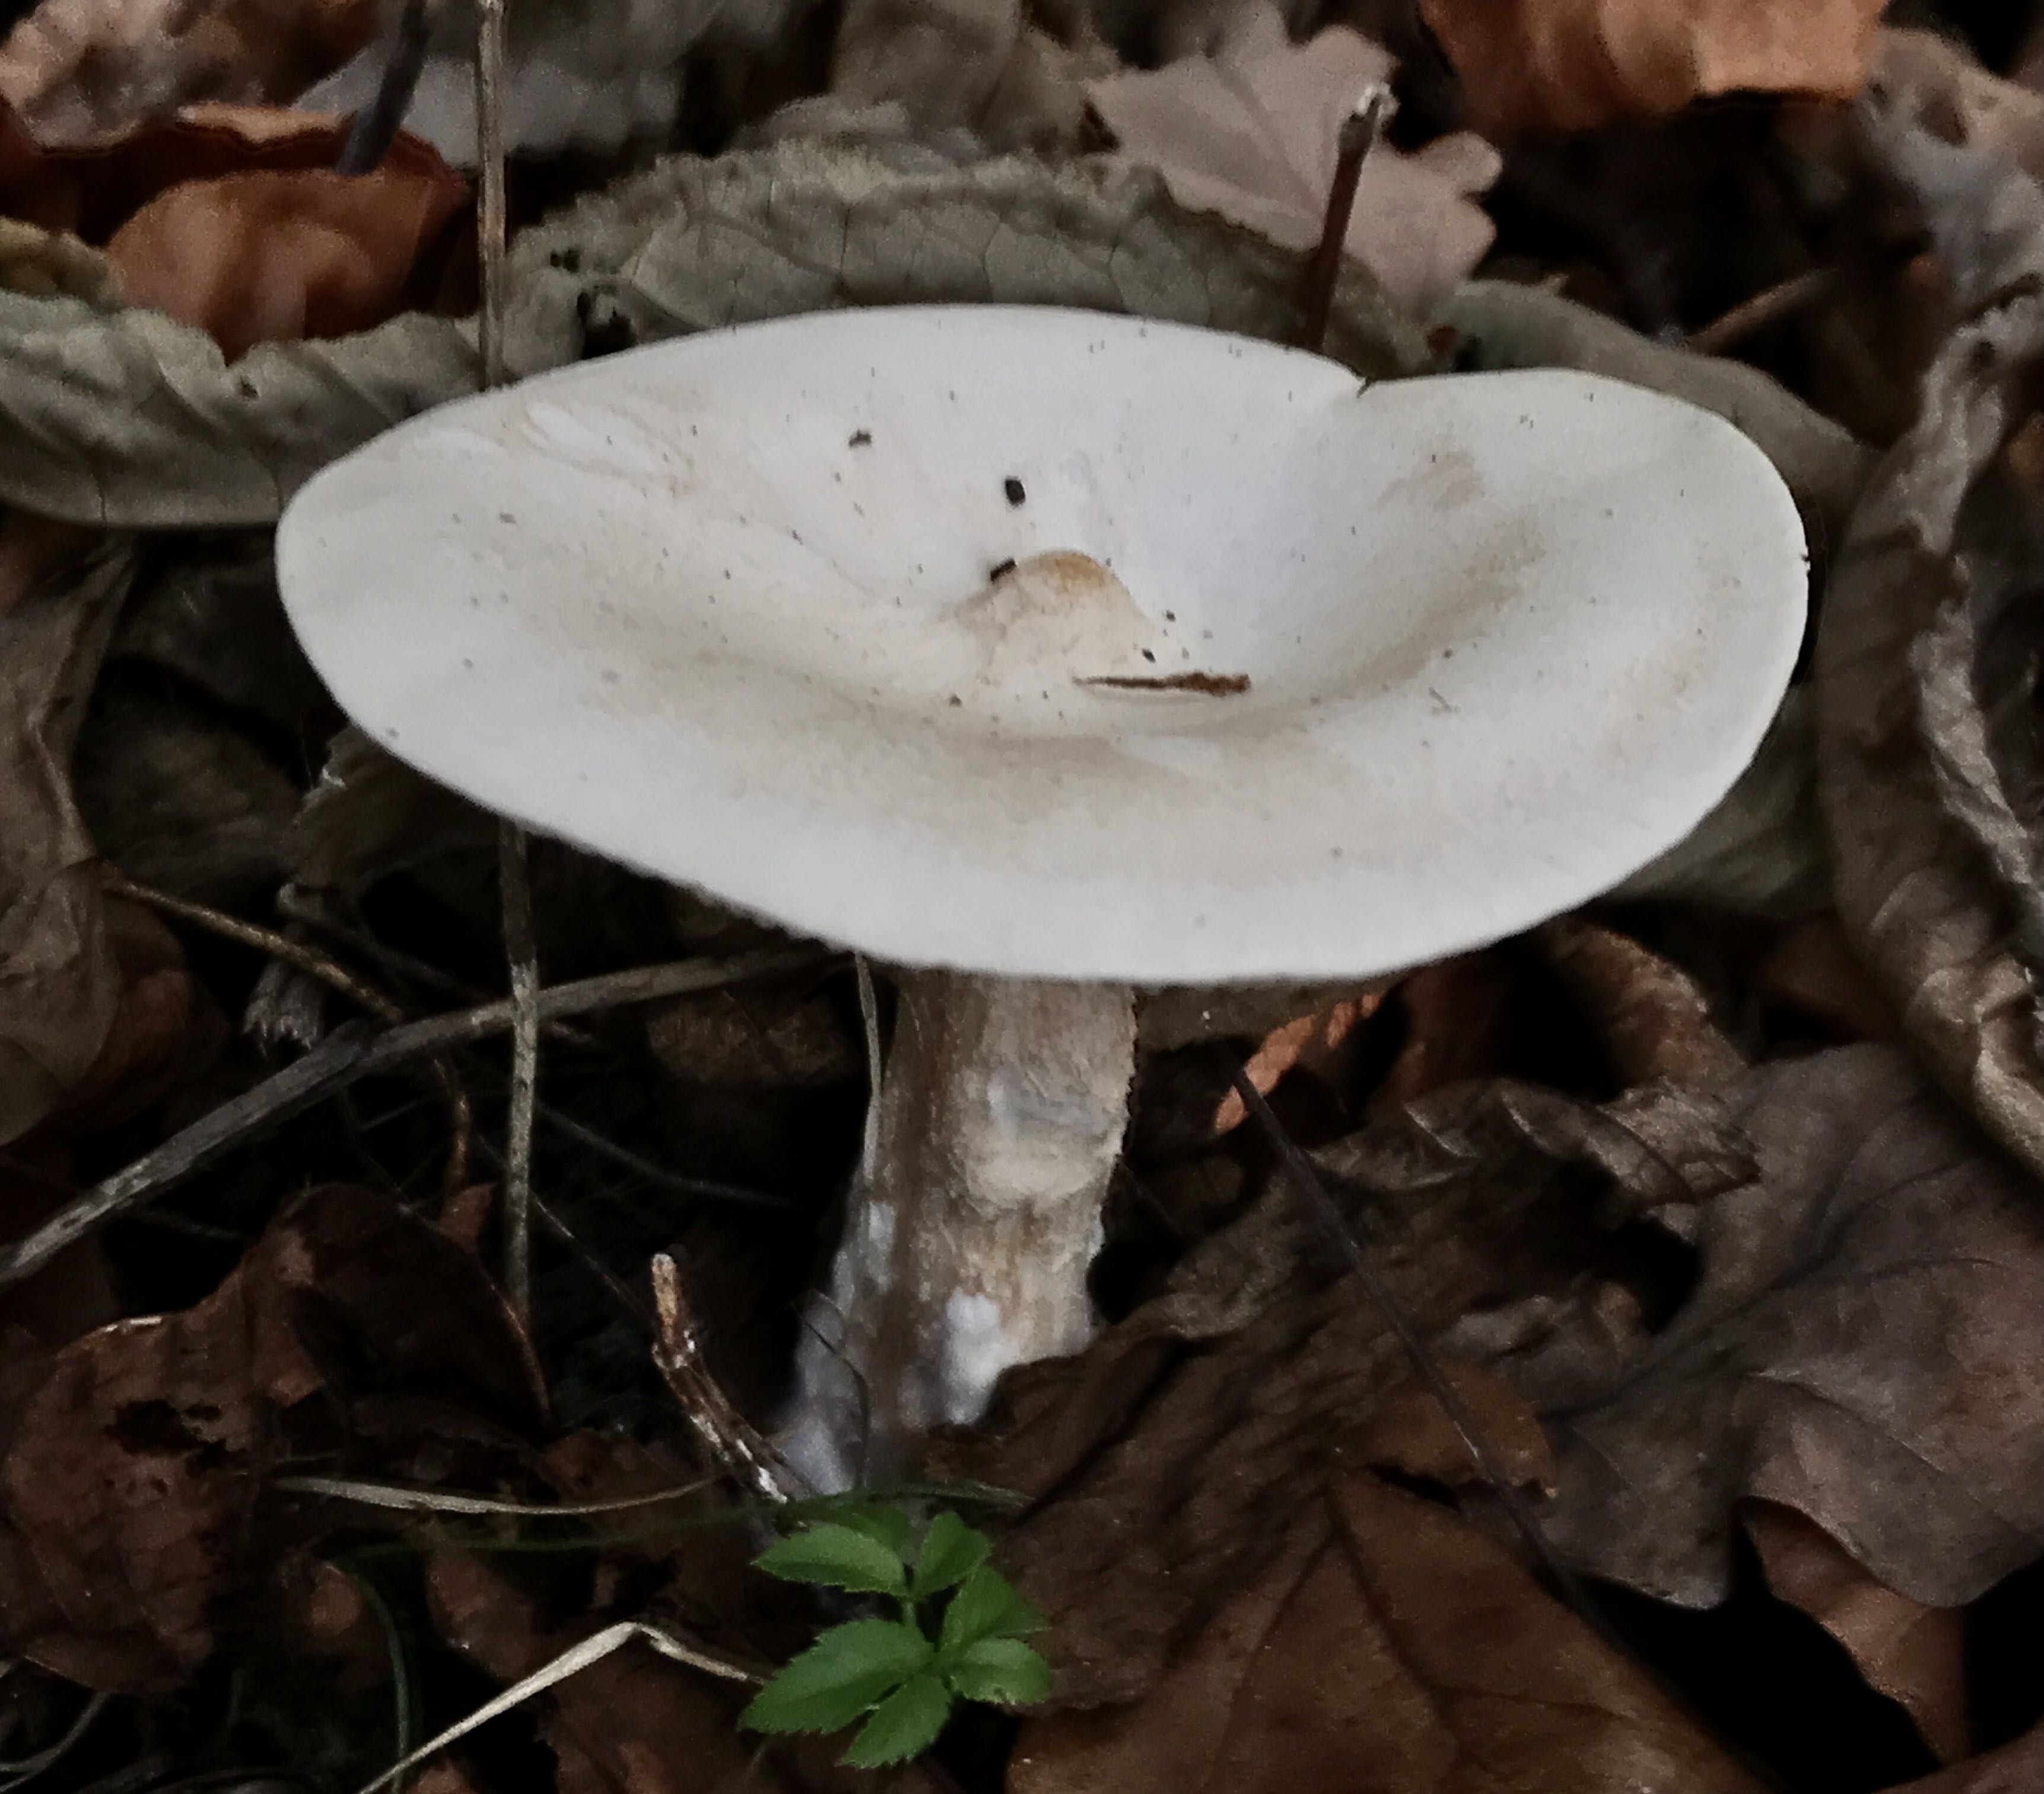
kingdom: Fungi
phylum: Basidiomycota
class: Agaricomycetes
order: Agaricales
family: Tricholomataceae
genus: Infundibulicybe
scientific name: Infundibulicybe geotropa
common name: stor tragthat
